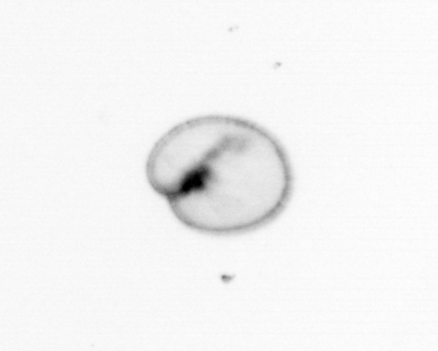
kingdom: Chromista
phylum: Myzozoa
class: Dinophyceae
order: Noctilucales
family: Noctilucaceae
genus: Noctiluca
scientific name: Noctiluca scintillans
